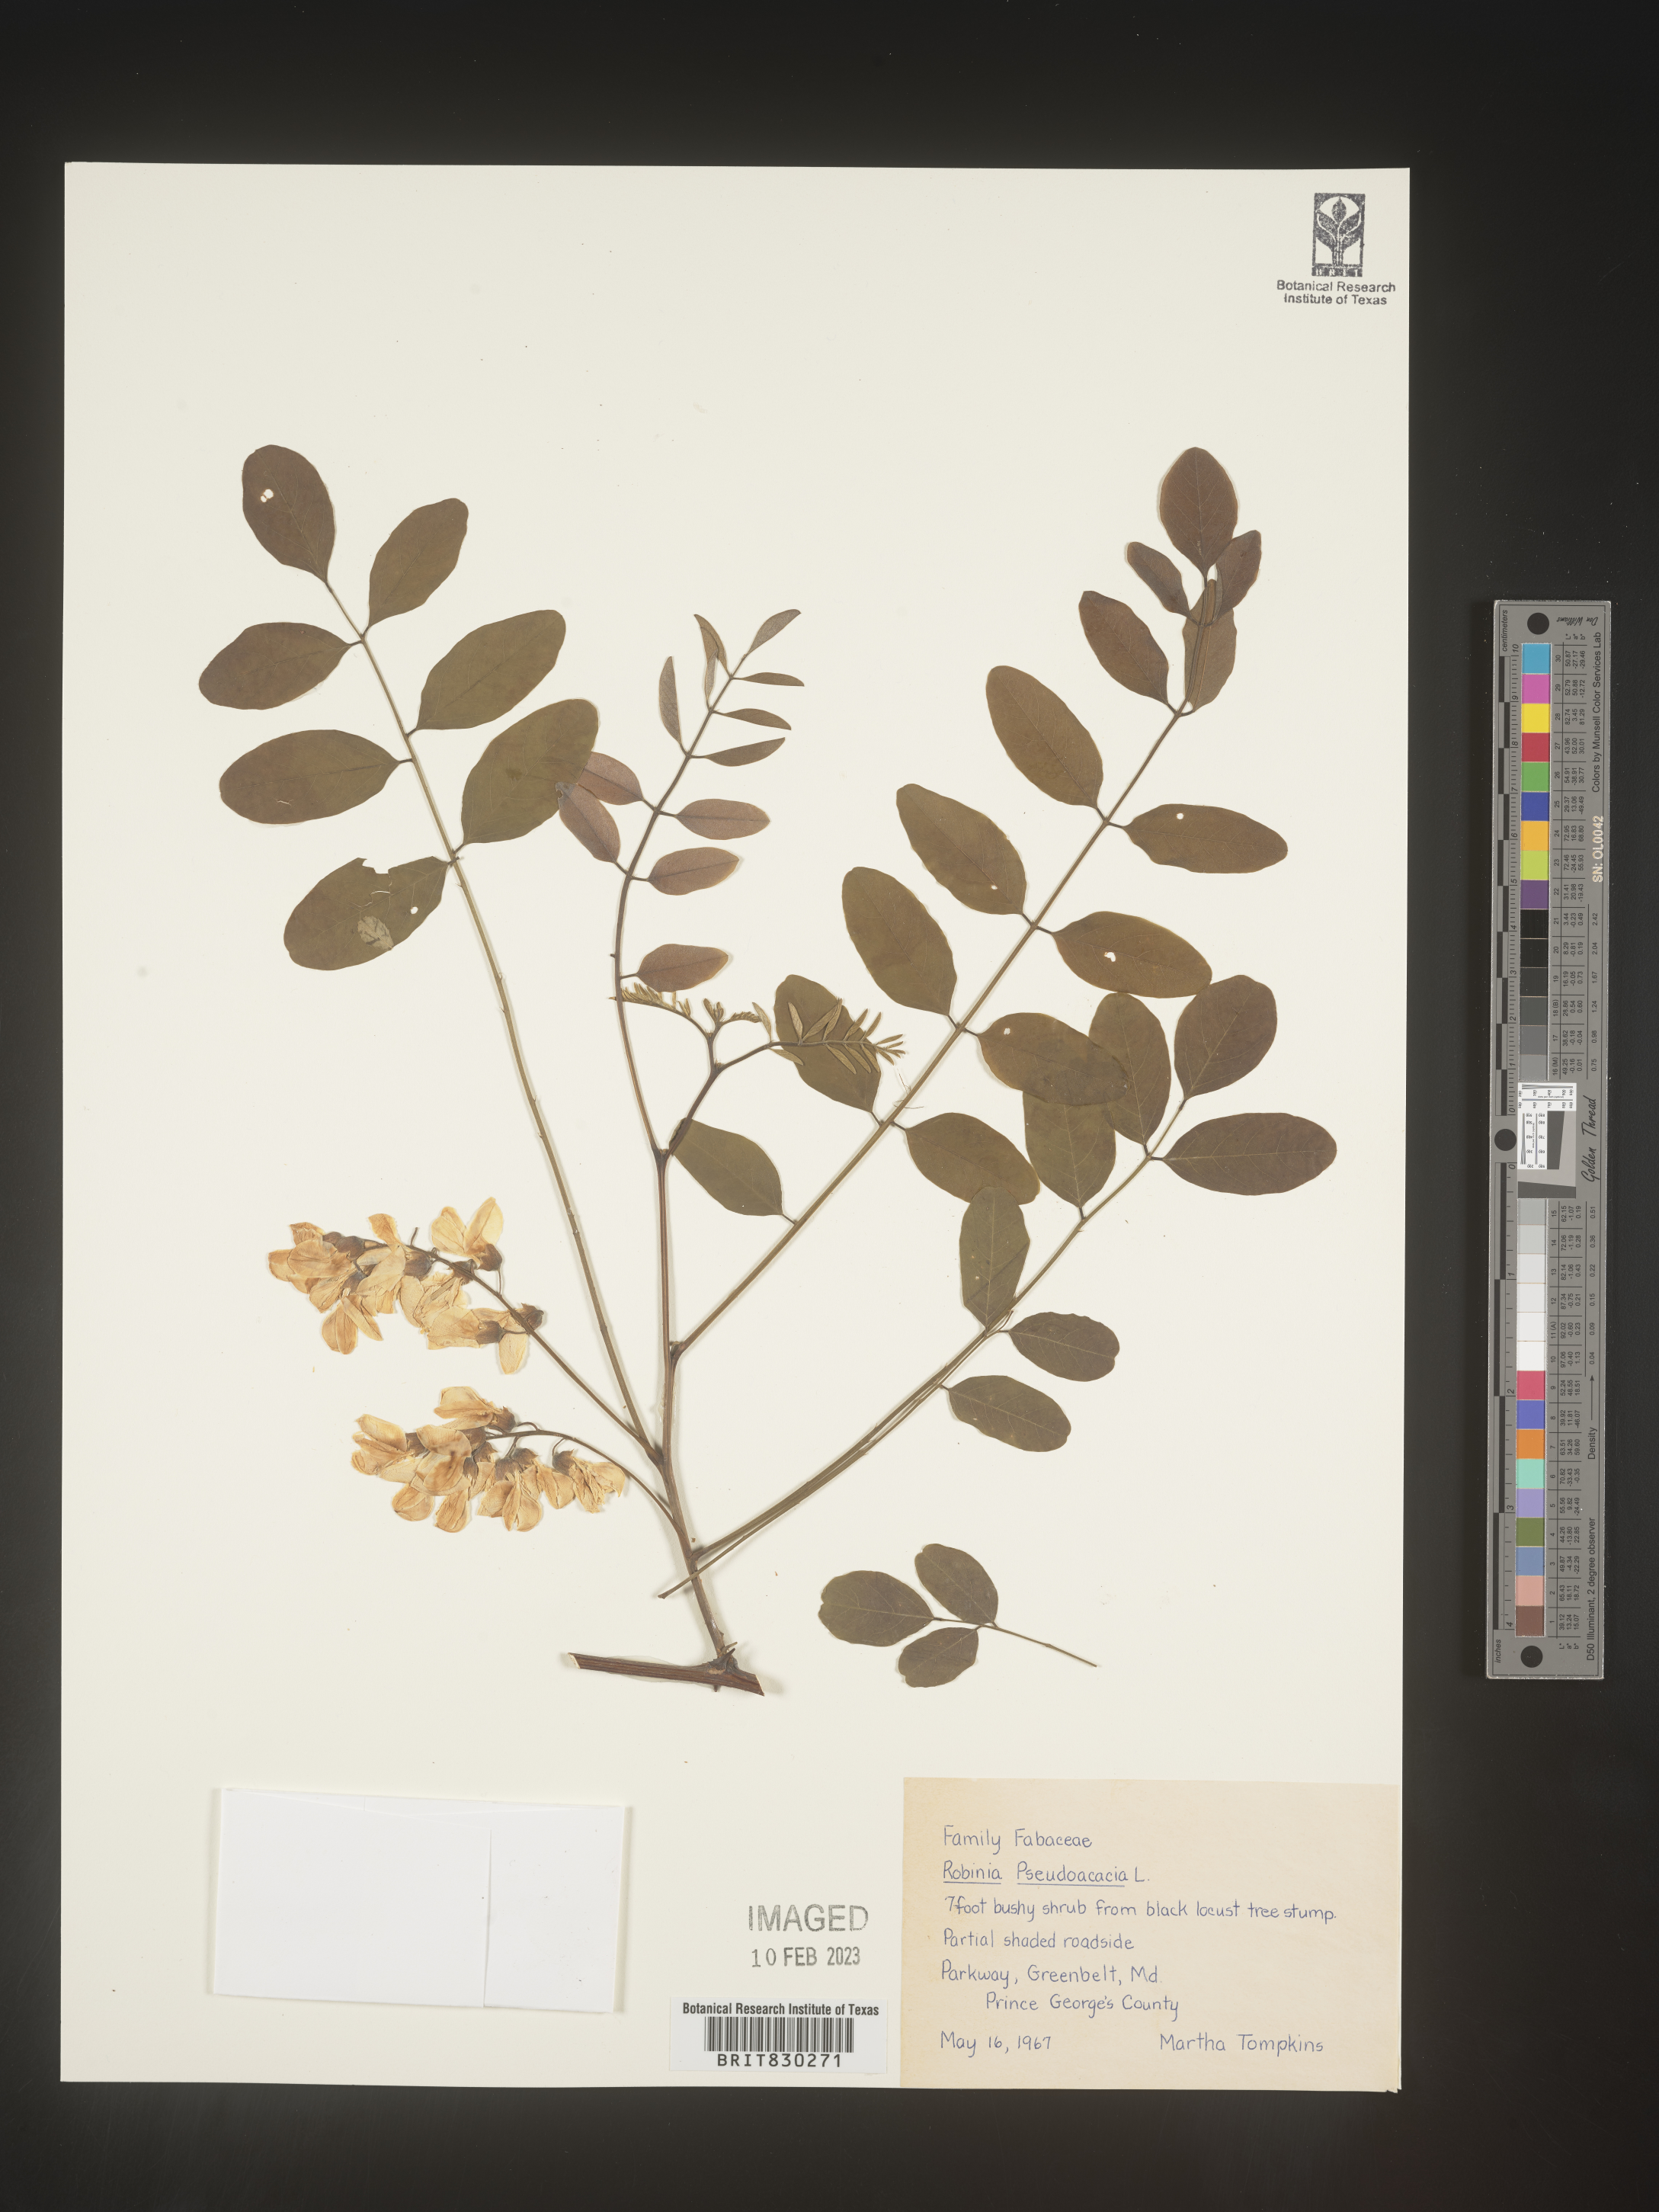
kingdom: Plantae
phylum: Tracheophyta
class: Magnoliopsida
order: Fabales
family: Fabaceae
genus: Robinia
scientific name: Robinia pseudoacacia
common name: Black locust
